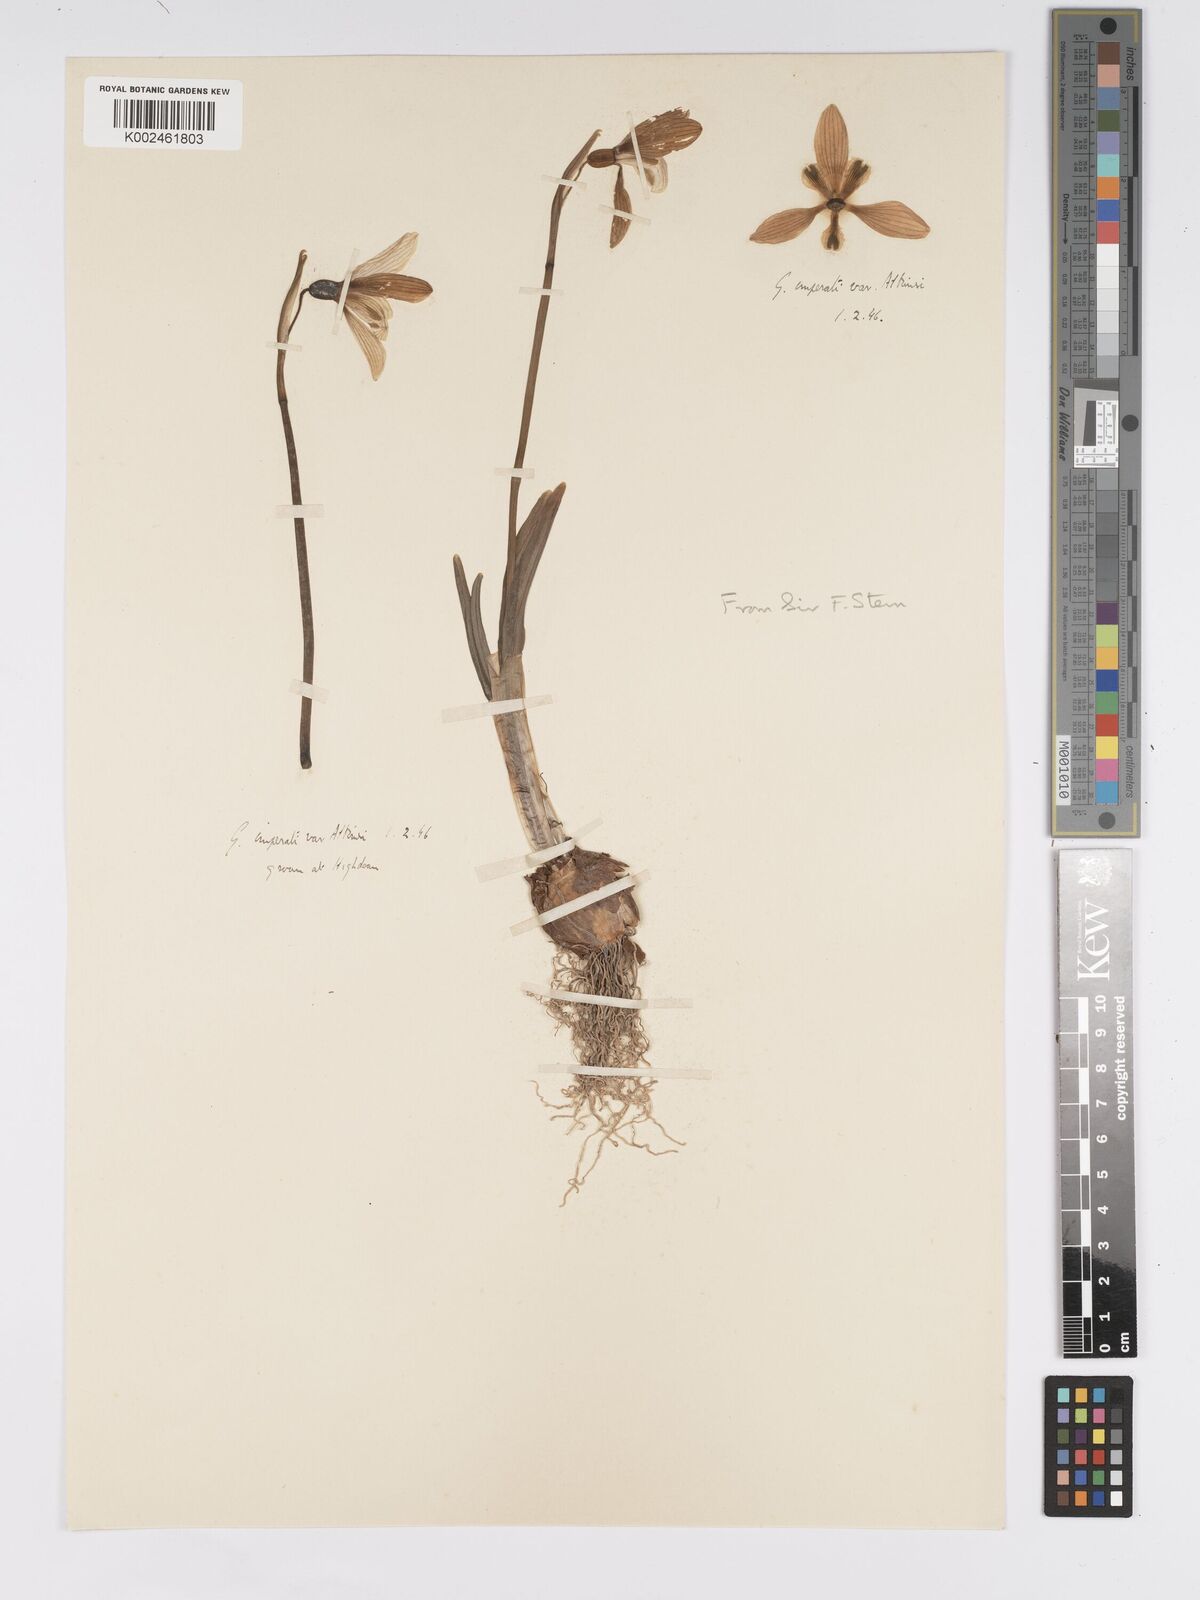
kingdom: Plantae
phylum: Tracheophyta
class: Liliopsida
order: Asparagales
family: Amaryllidaceae
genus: Galanthus
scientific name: Galanthus
